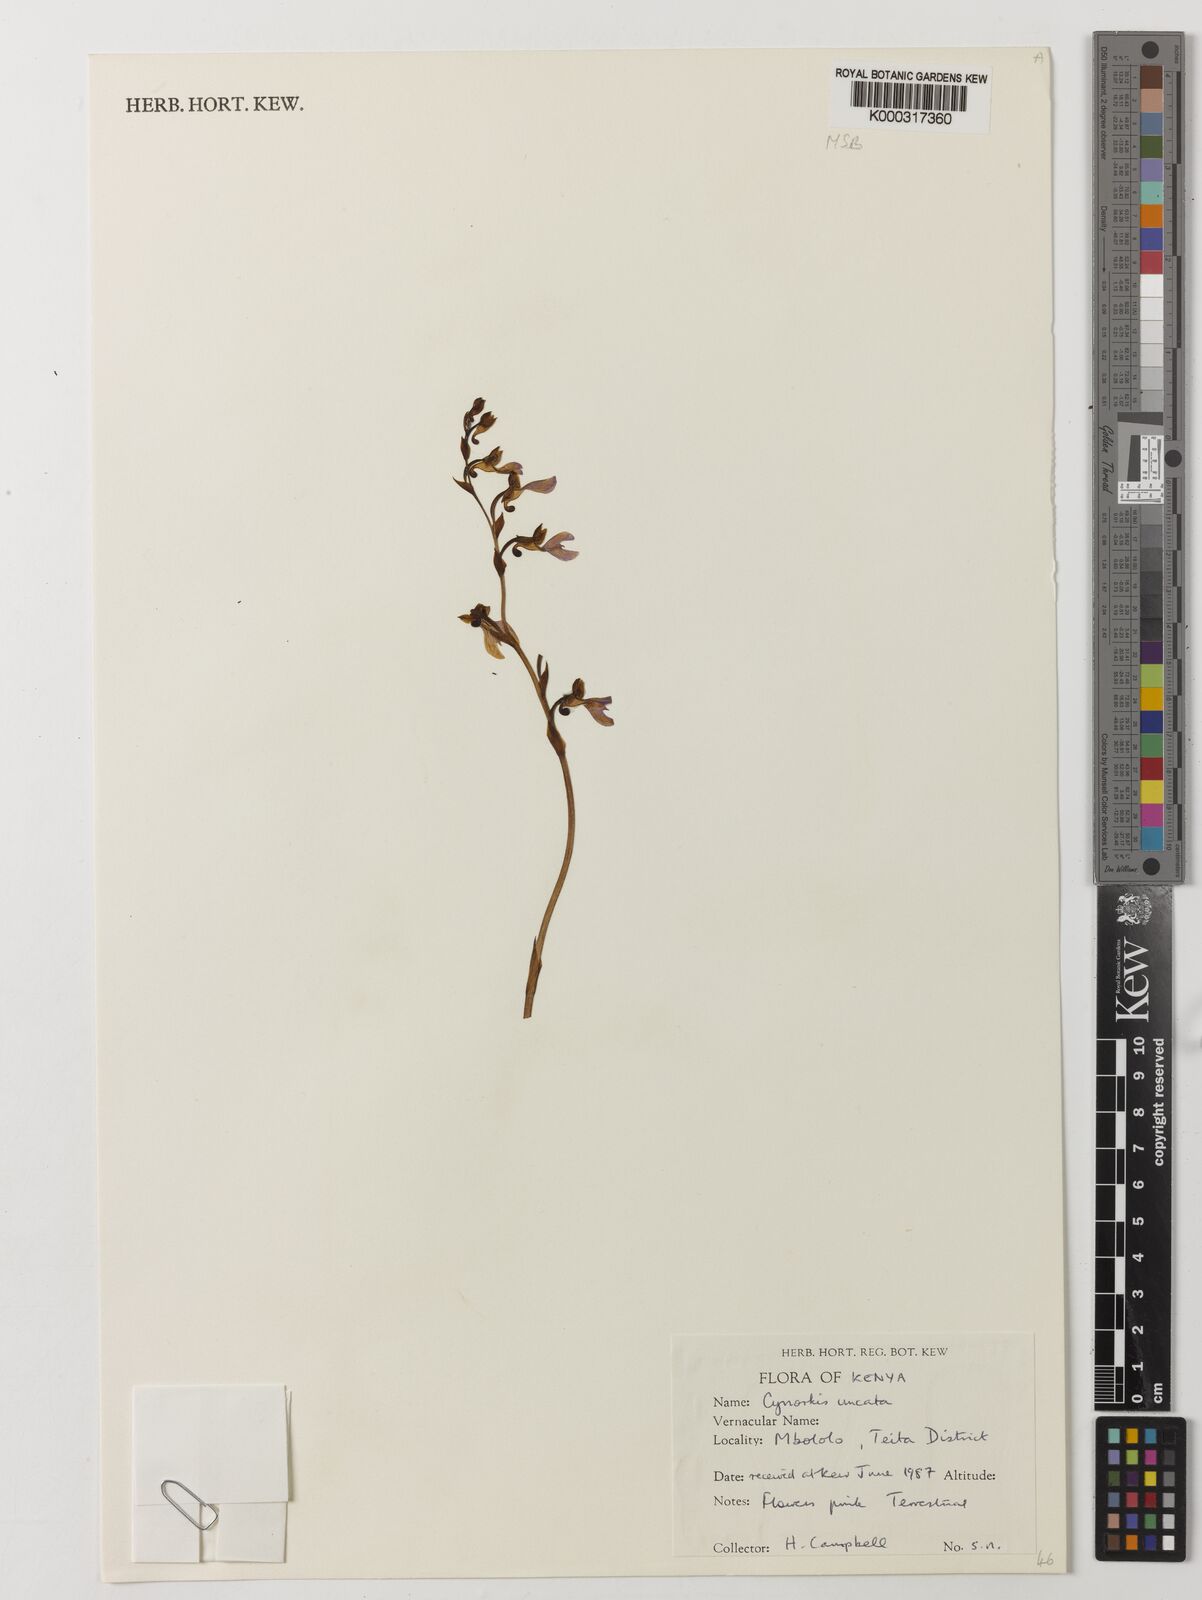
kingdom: Plantae
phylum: Tracheophyta
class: Liliopsida
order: Asparagales
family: Orchidaceae
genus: Cynorkis
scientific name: Cynorkis uncata
